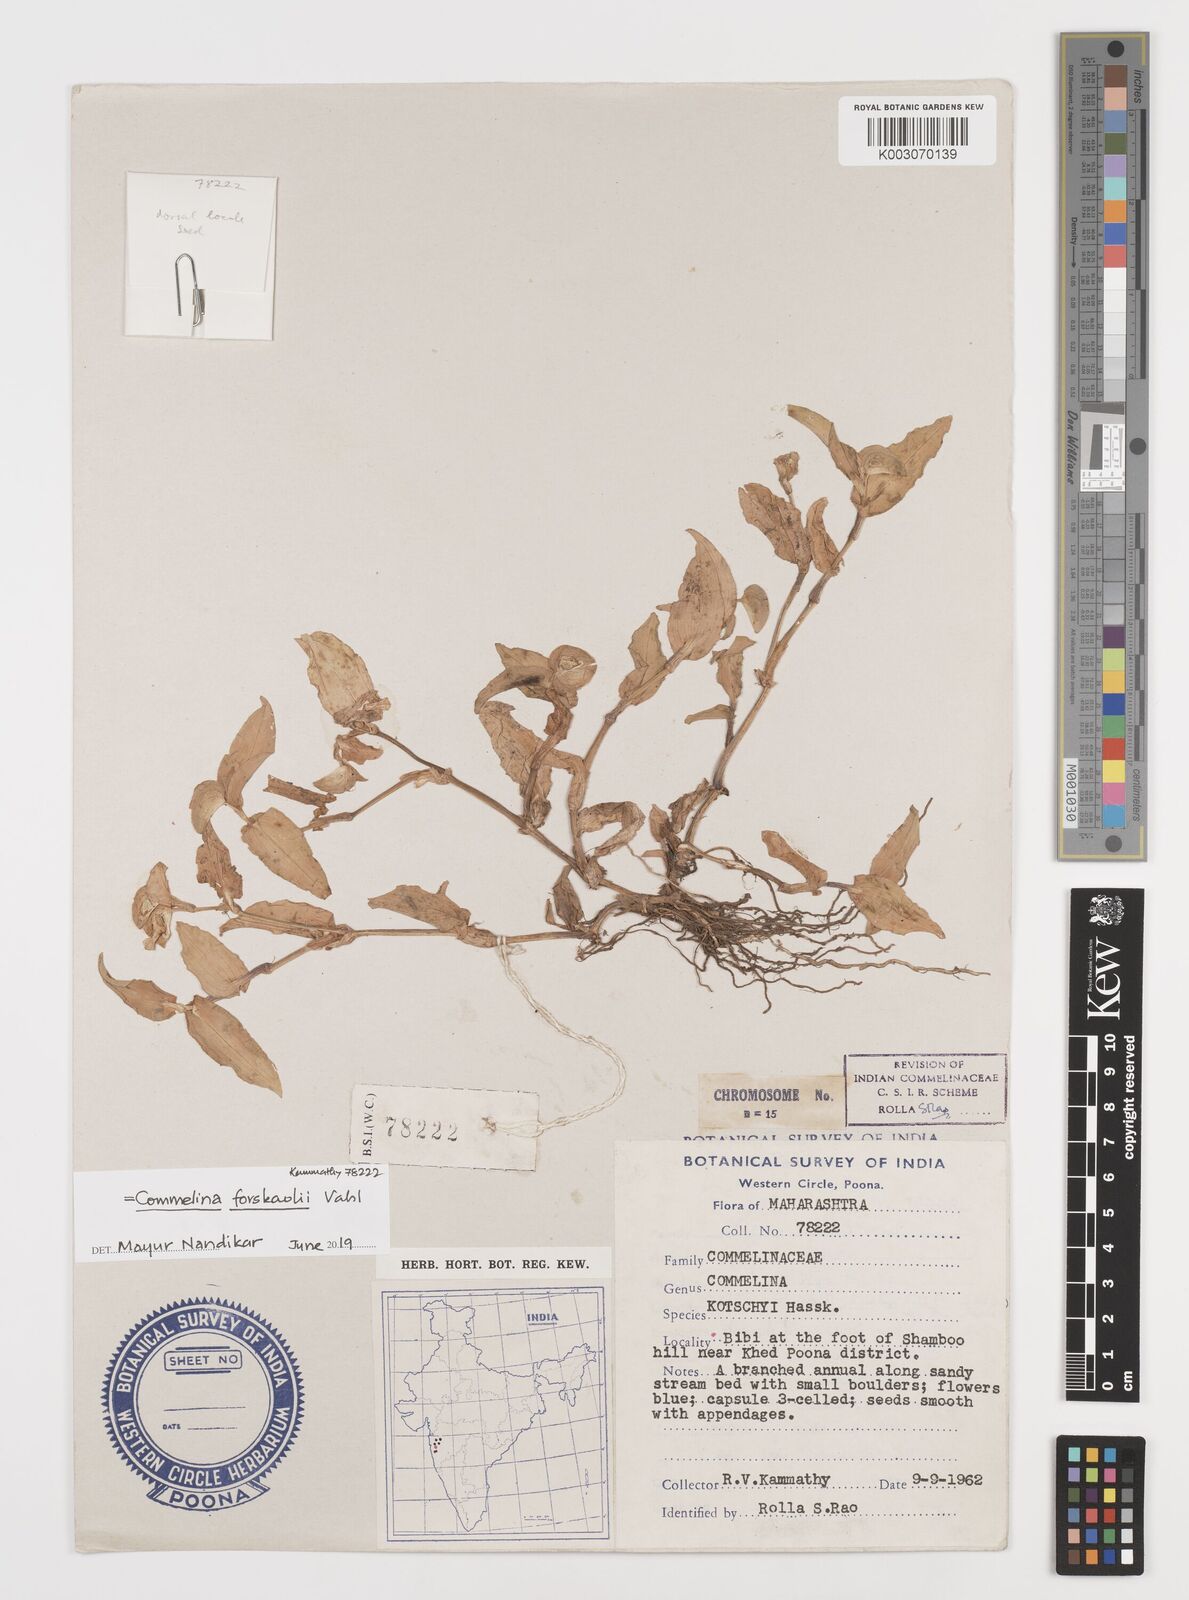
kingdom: Plantae
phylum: Tracheophyta
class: Liliopsida
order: Commelinales
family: Commelinaceae
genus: Commelina
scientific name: Commelina forskaolii
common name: Rat's ear
